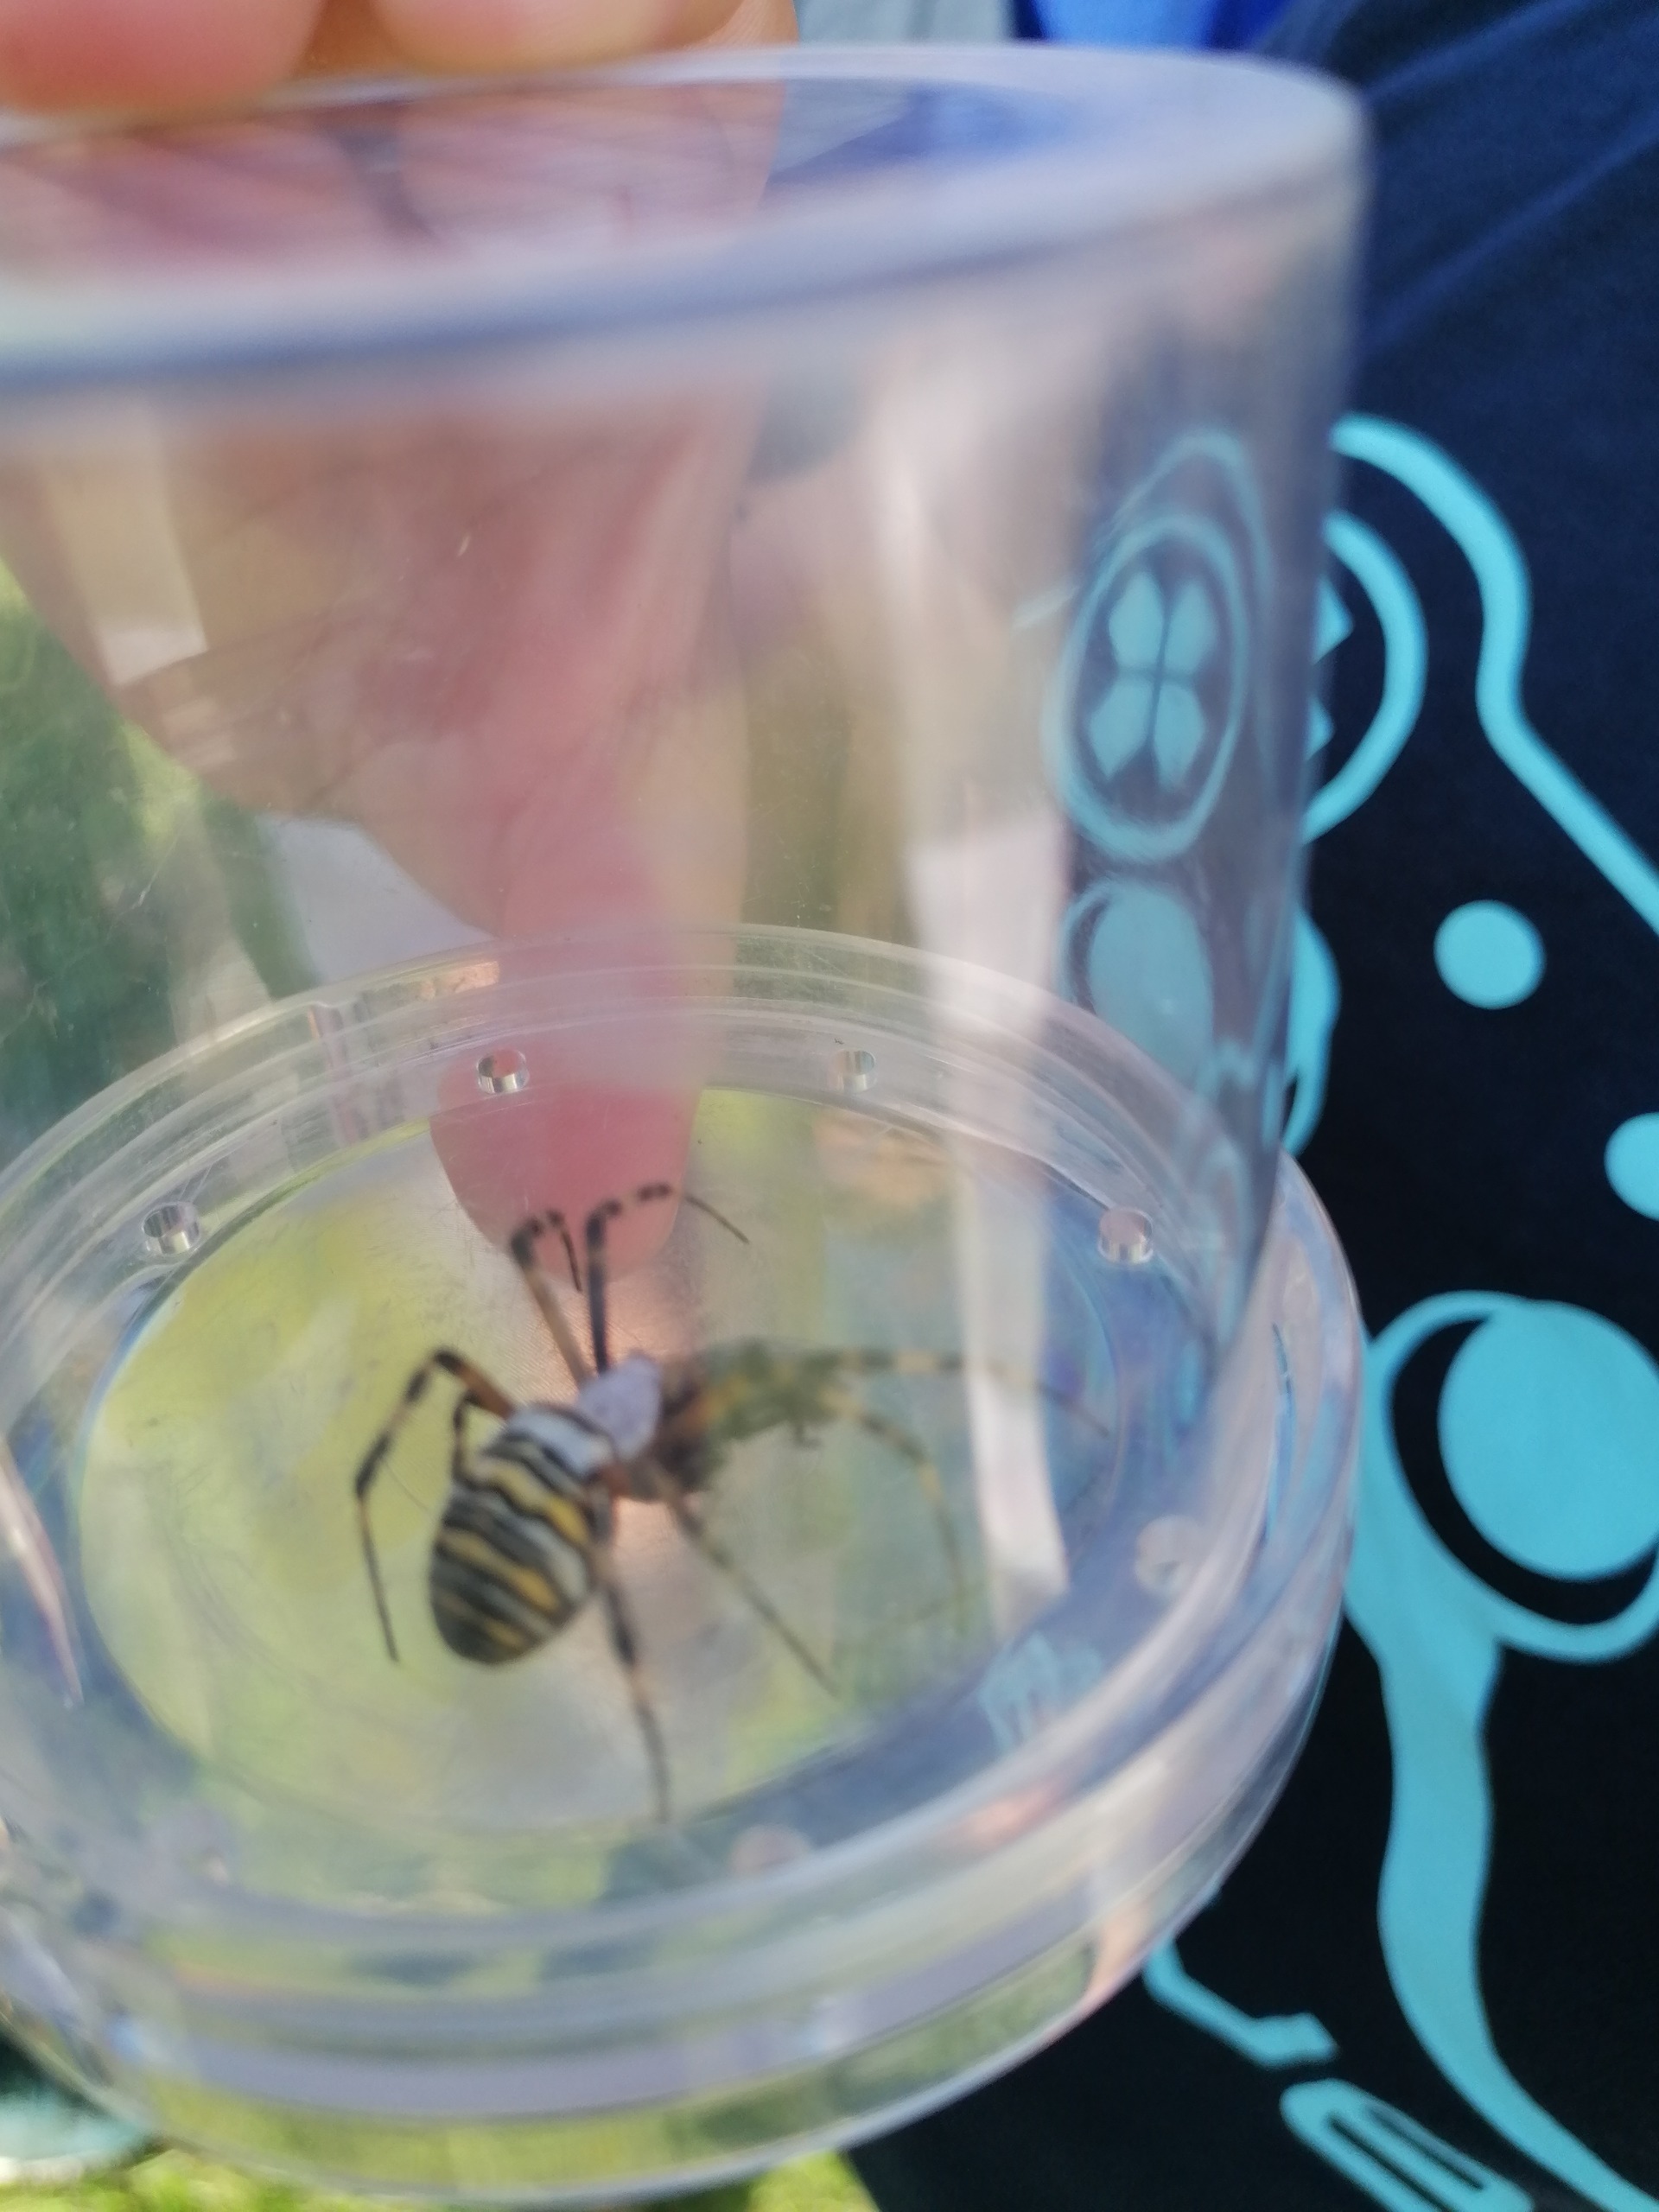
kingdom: Animalia
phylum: Arthropoda
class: Arachnida
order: Araneae
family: Araneidae
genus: Argiope
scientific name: Argiope bruennichi
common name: Hvepseedderkop
